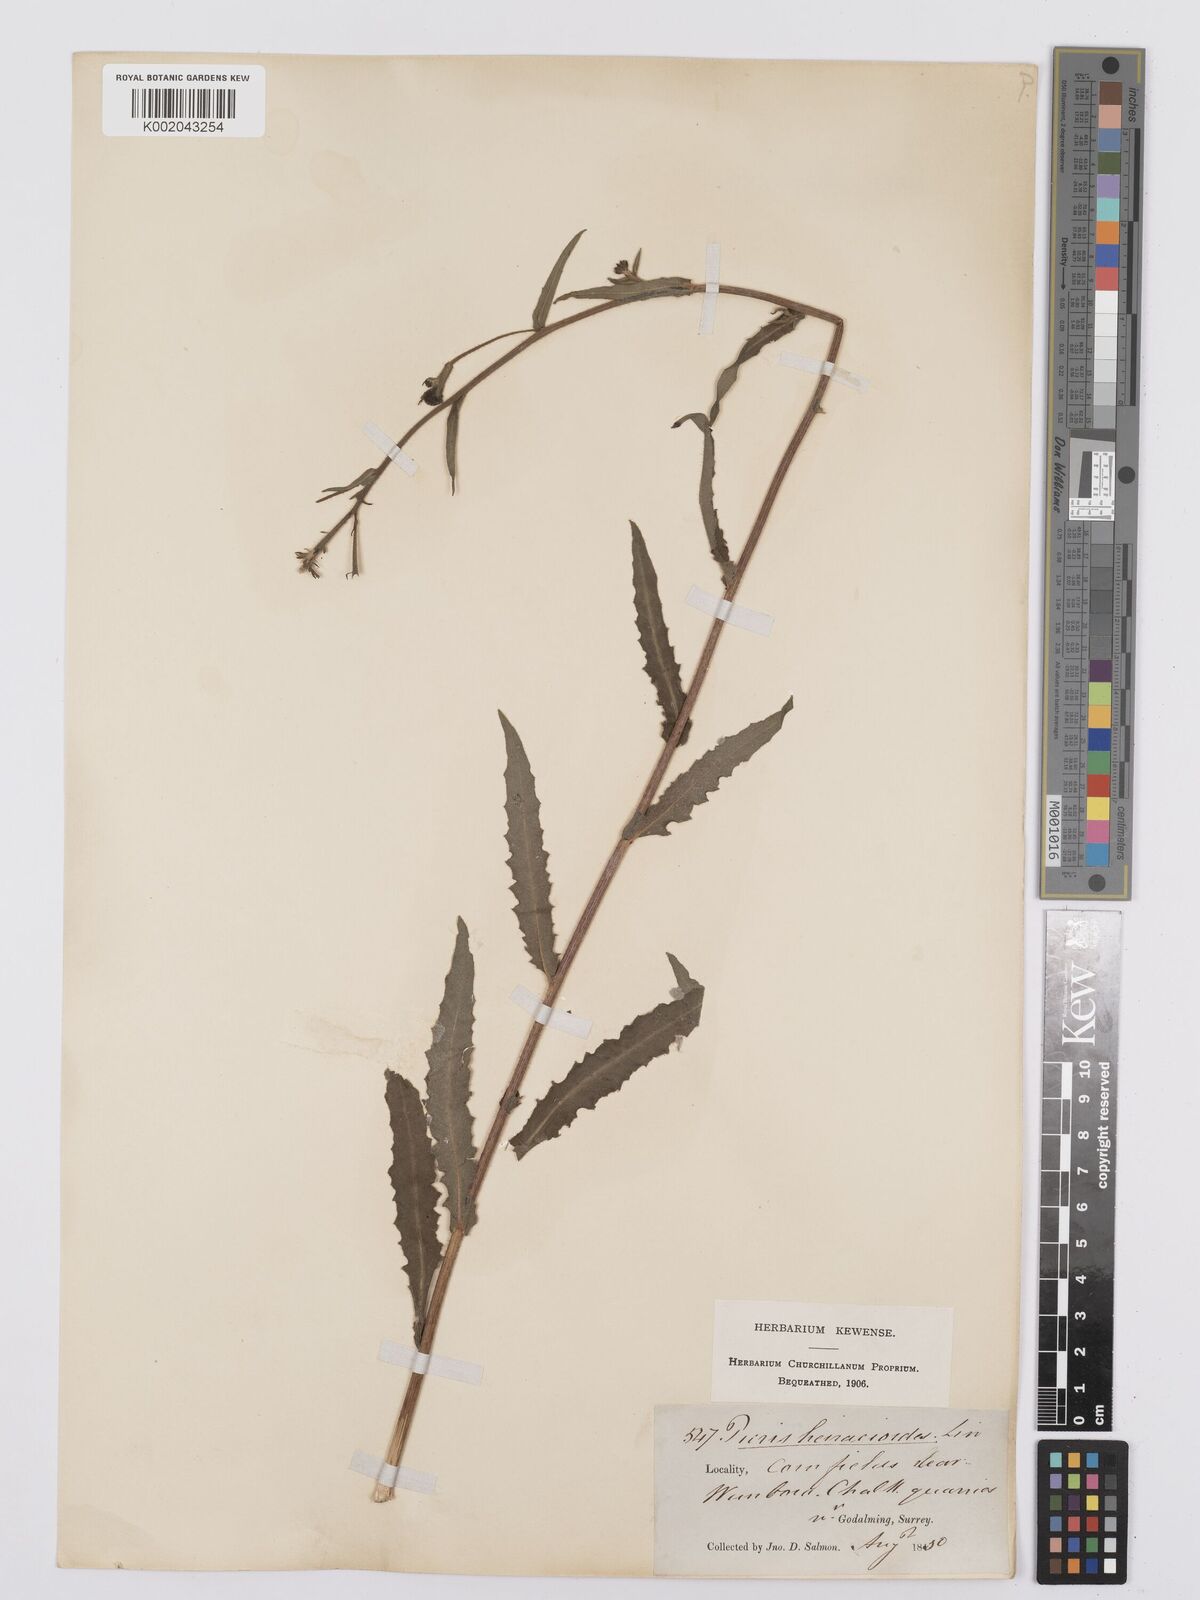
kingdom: Plantae
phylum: Tracheophyta
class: Magnoliopsida
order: Asterales
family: Asteraceae
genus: Picris
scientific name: Picris hieracioides
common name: Hawkweed oxtongue
